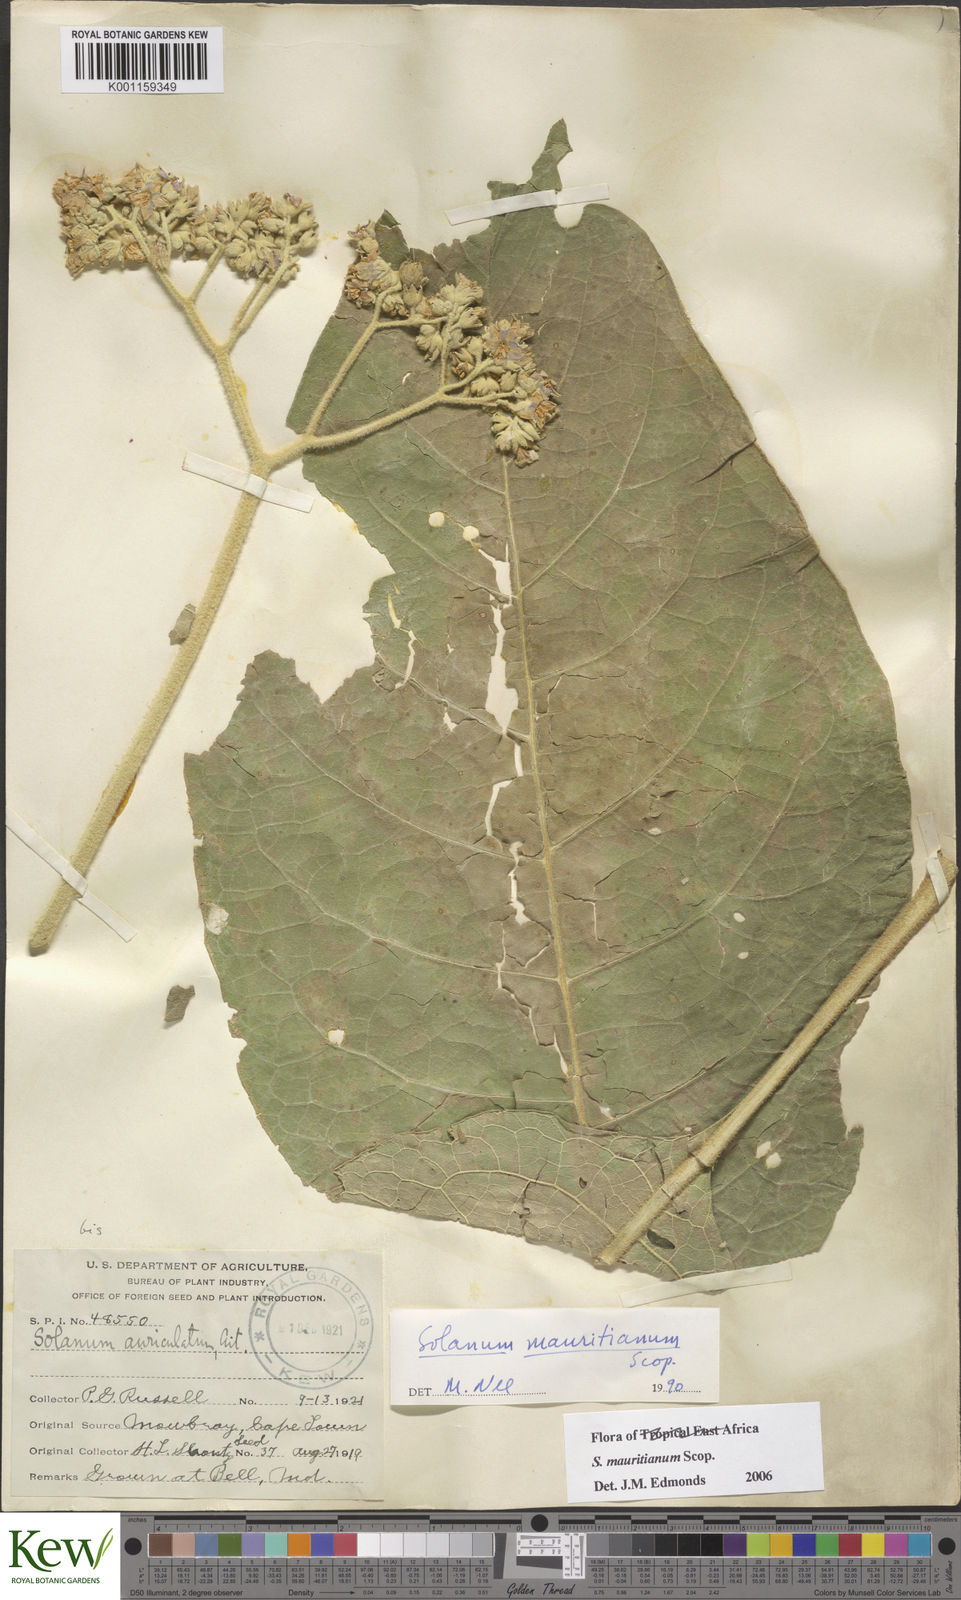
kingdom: Plantae
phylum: Tracheophyta
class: Magnoliopsida
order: Solanales
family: Solanaceae
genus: Solanum
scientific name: Solanum mauritianum
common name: Earleaf nightshade
